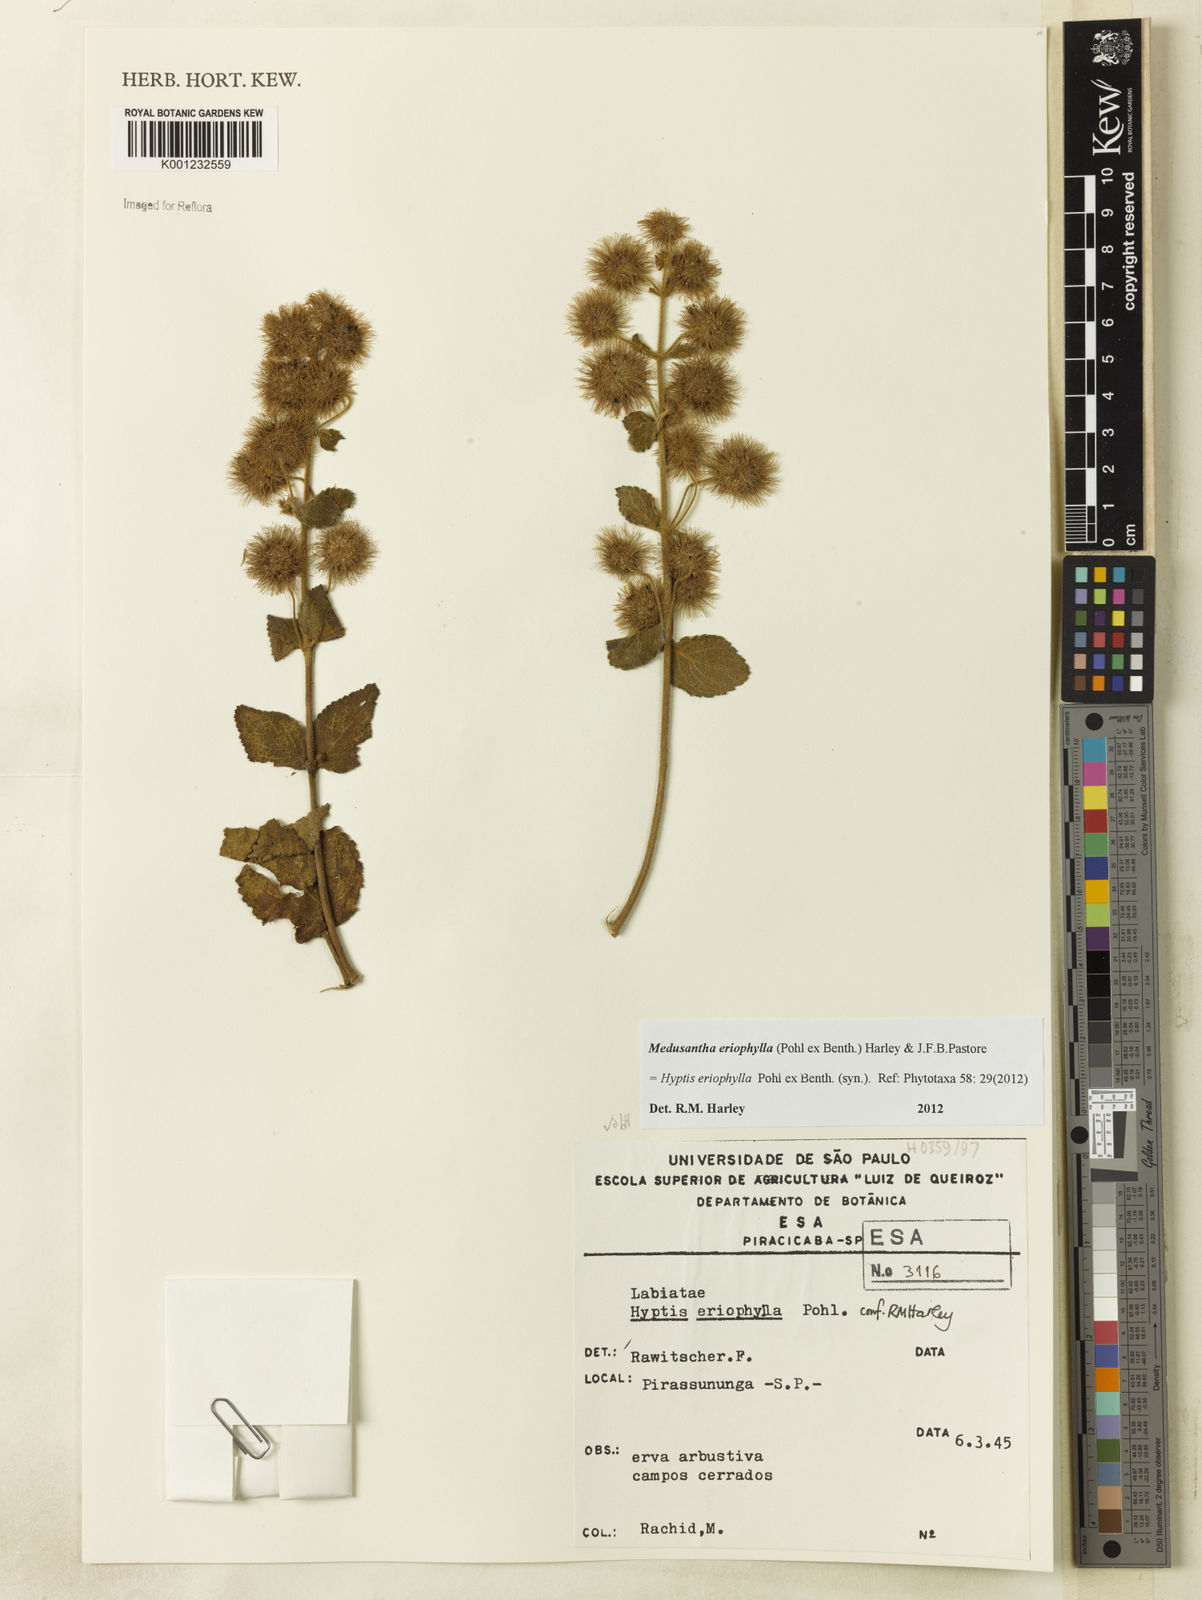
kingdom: Plantae
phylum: Tracheophyta
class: Magnoliopsida
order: Lamiales
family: Lamiaceae
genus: Medusantha
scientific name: Medusantha eriophylla
